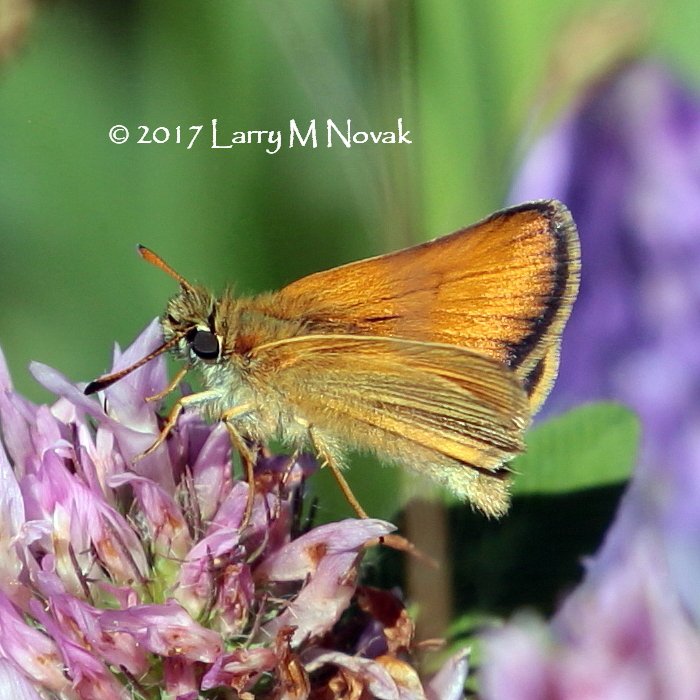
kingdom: Animalia
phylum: Arthropoda
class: Insecta
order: Lepidoptera
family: Hesperiidae
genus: Thymelicus
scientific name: Thymelicus lineola
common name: European Skipper
